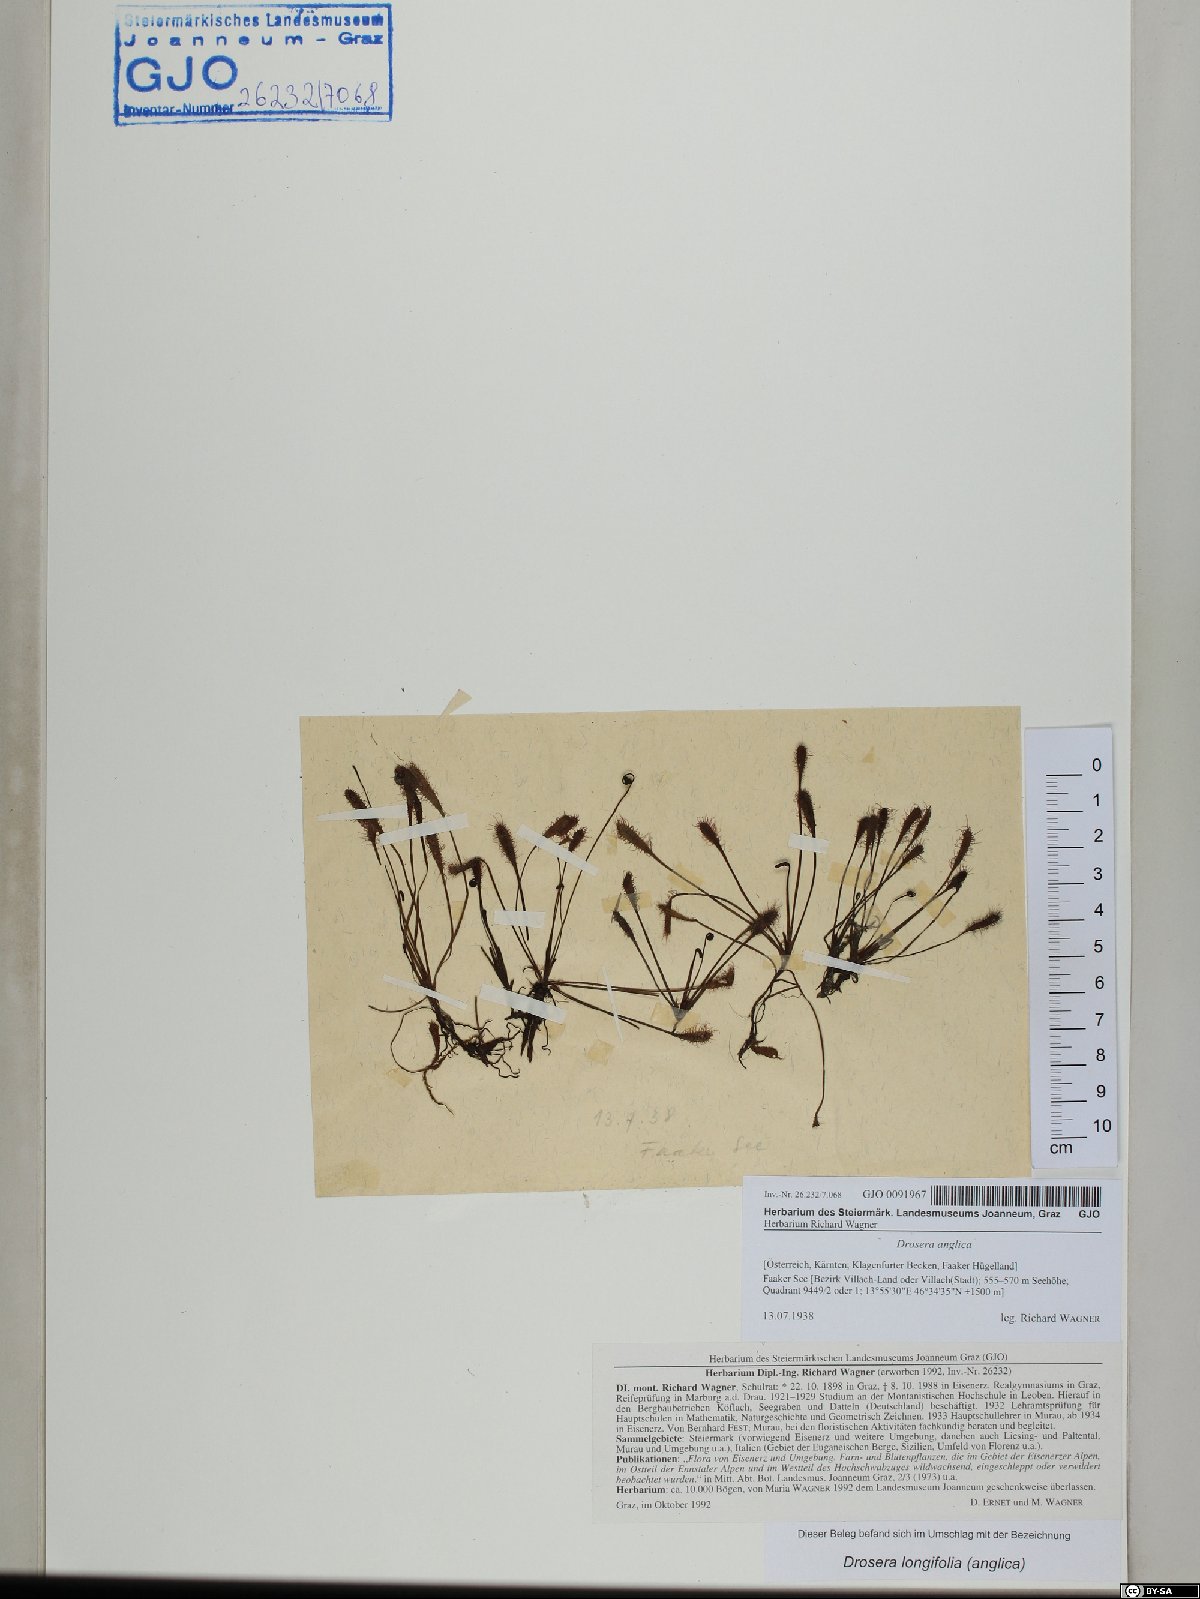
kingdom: Plantae
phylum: Tracheophyta
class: Magnoliopsida
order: Caryophyllales
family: Droseraceae
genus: Drosera
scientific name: Drosera anglica
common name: Great sundew
